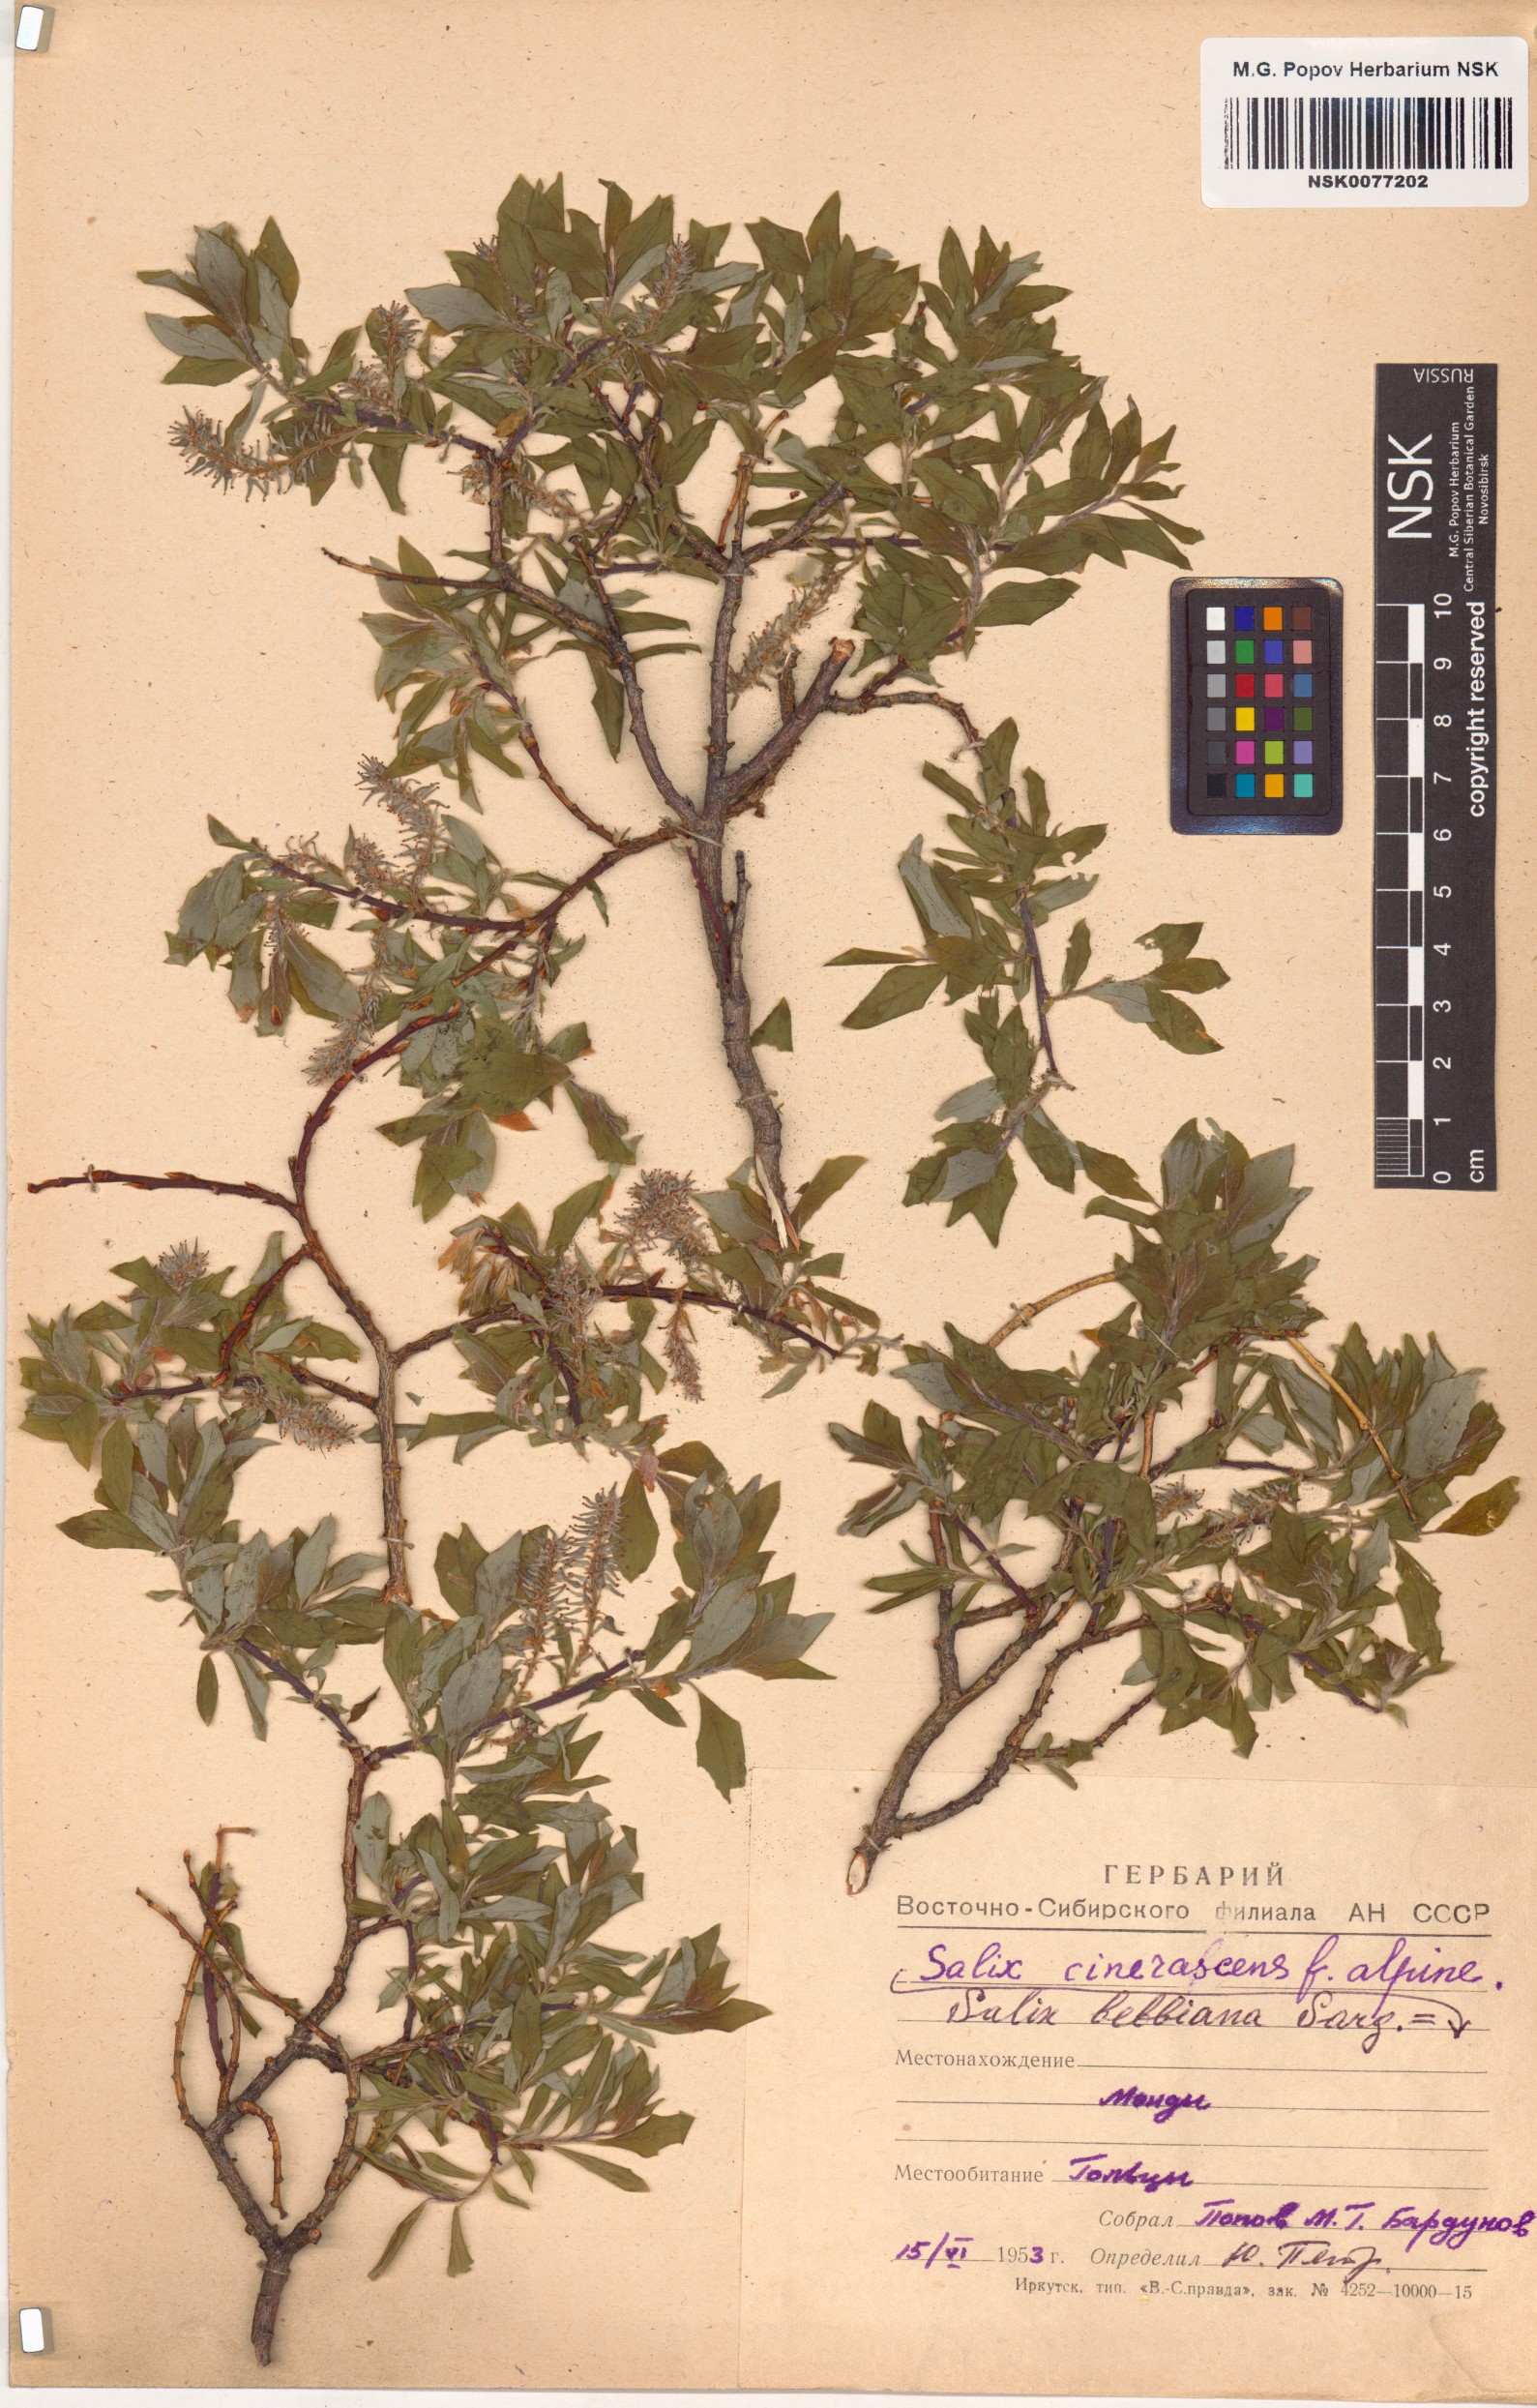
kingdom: Plantae
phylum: Tracheophyta
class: Magnoliopsida
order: Malpighiales
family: Salicaceae
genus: Salix
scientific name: Salix bebbiana
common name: Bebb's willow
